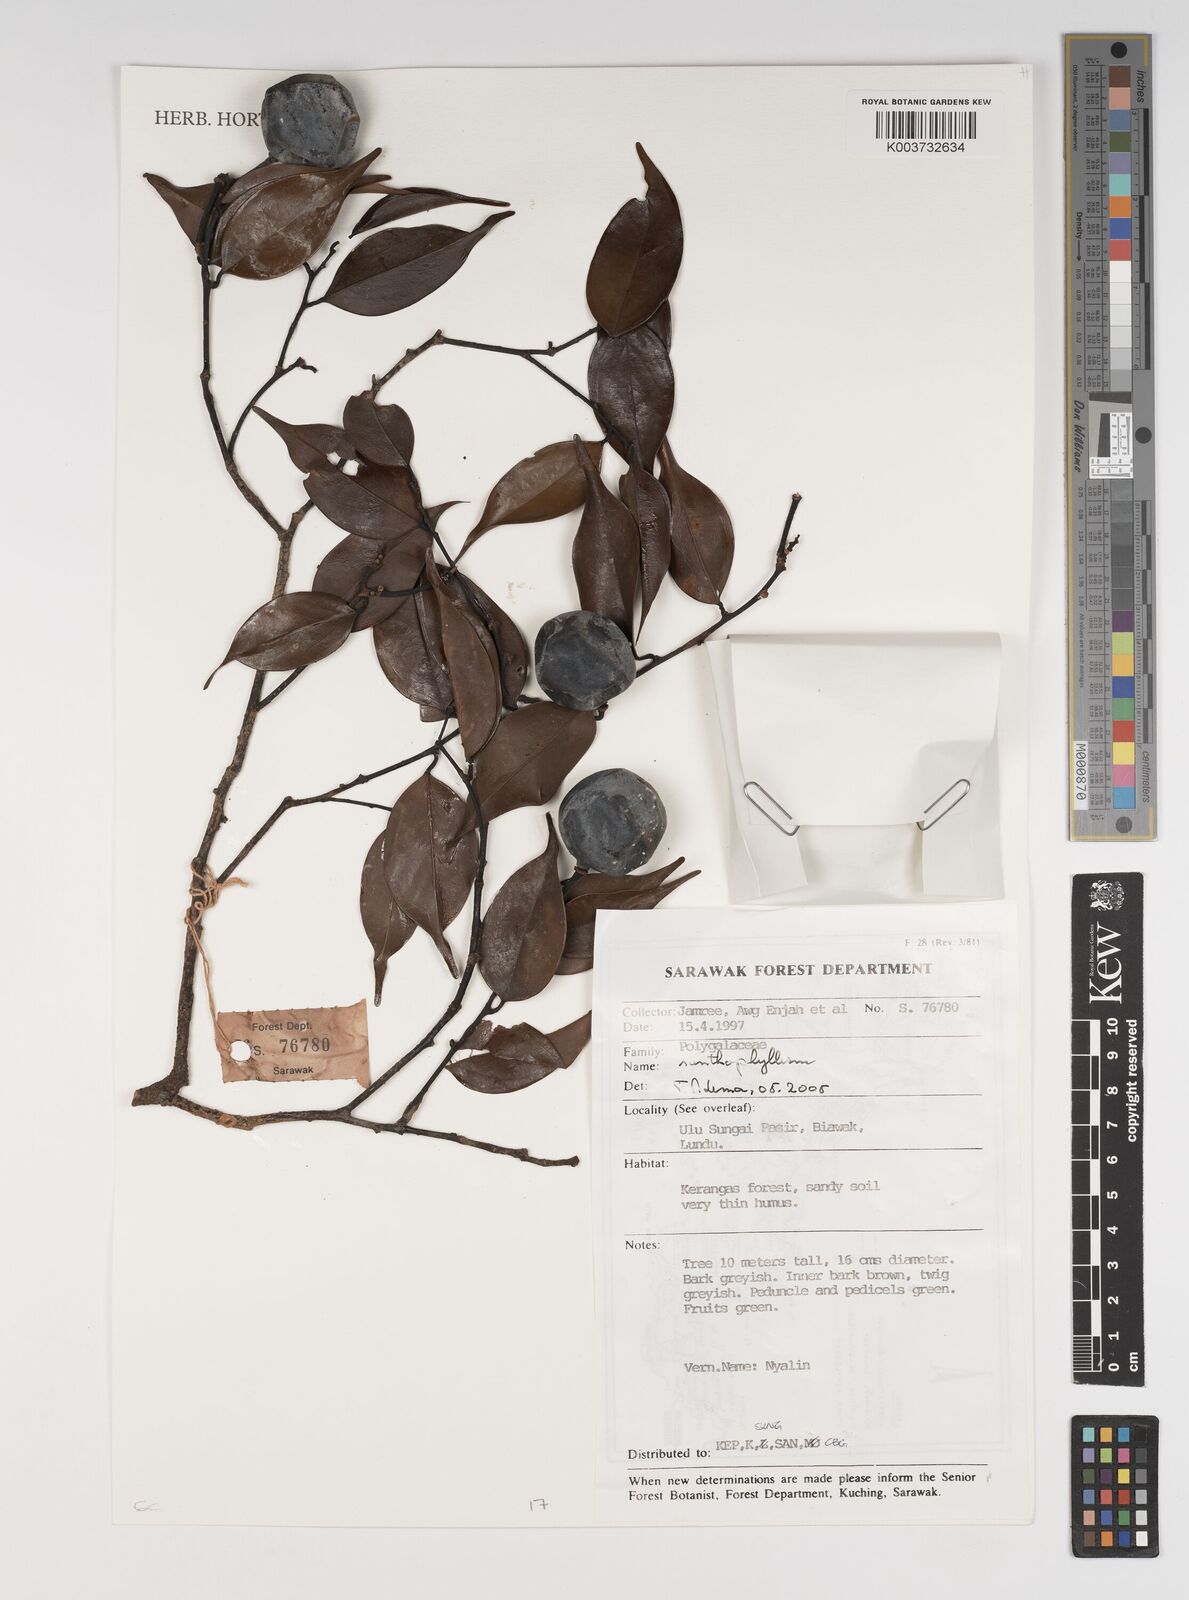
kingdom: Plantae
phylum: Tracheophyta
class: Magnoliopsida
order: Fabales
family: Polygalaceae
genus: Xanthophyllum
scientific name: Xanthophyllum
